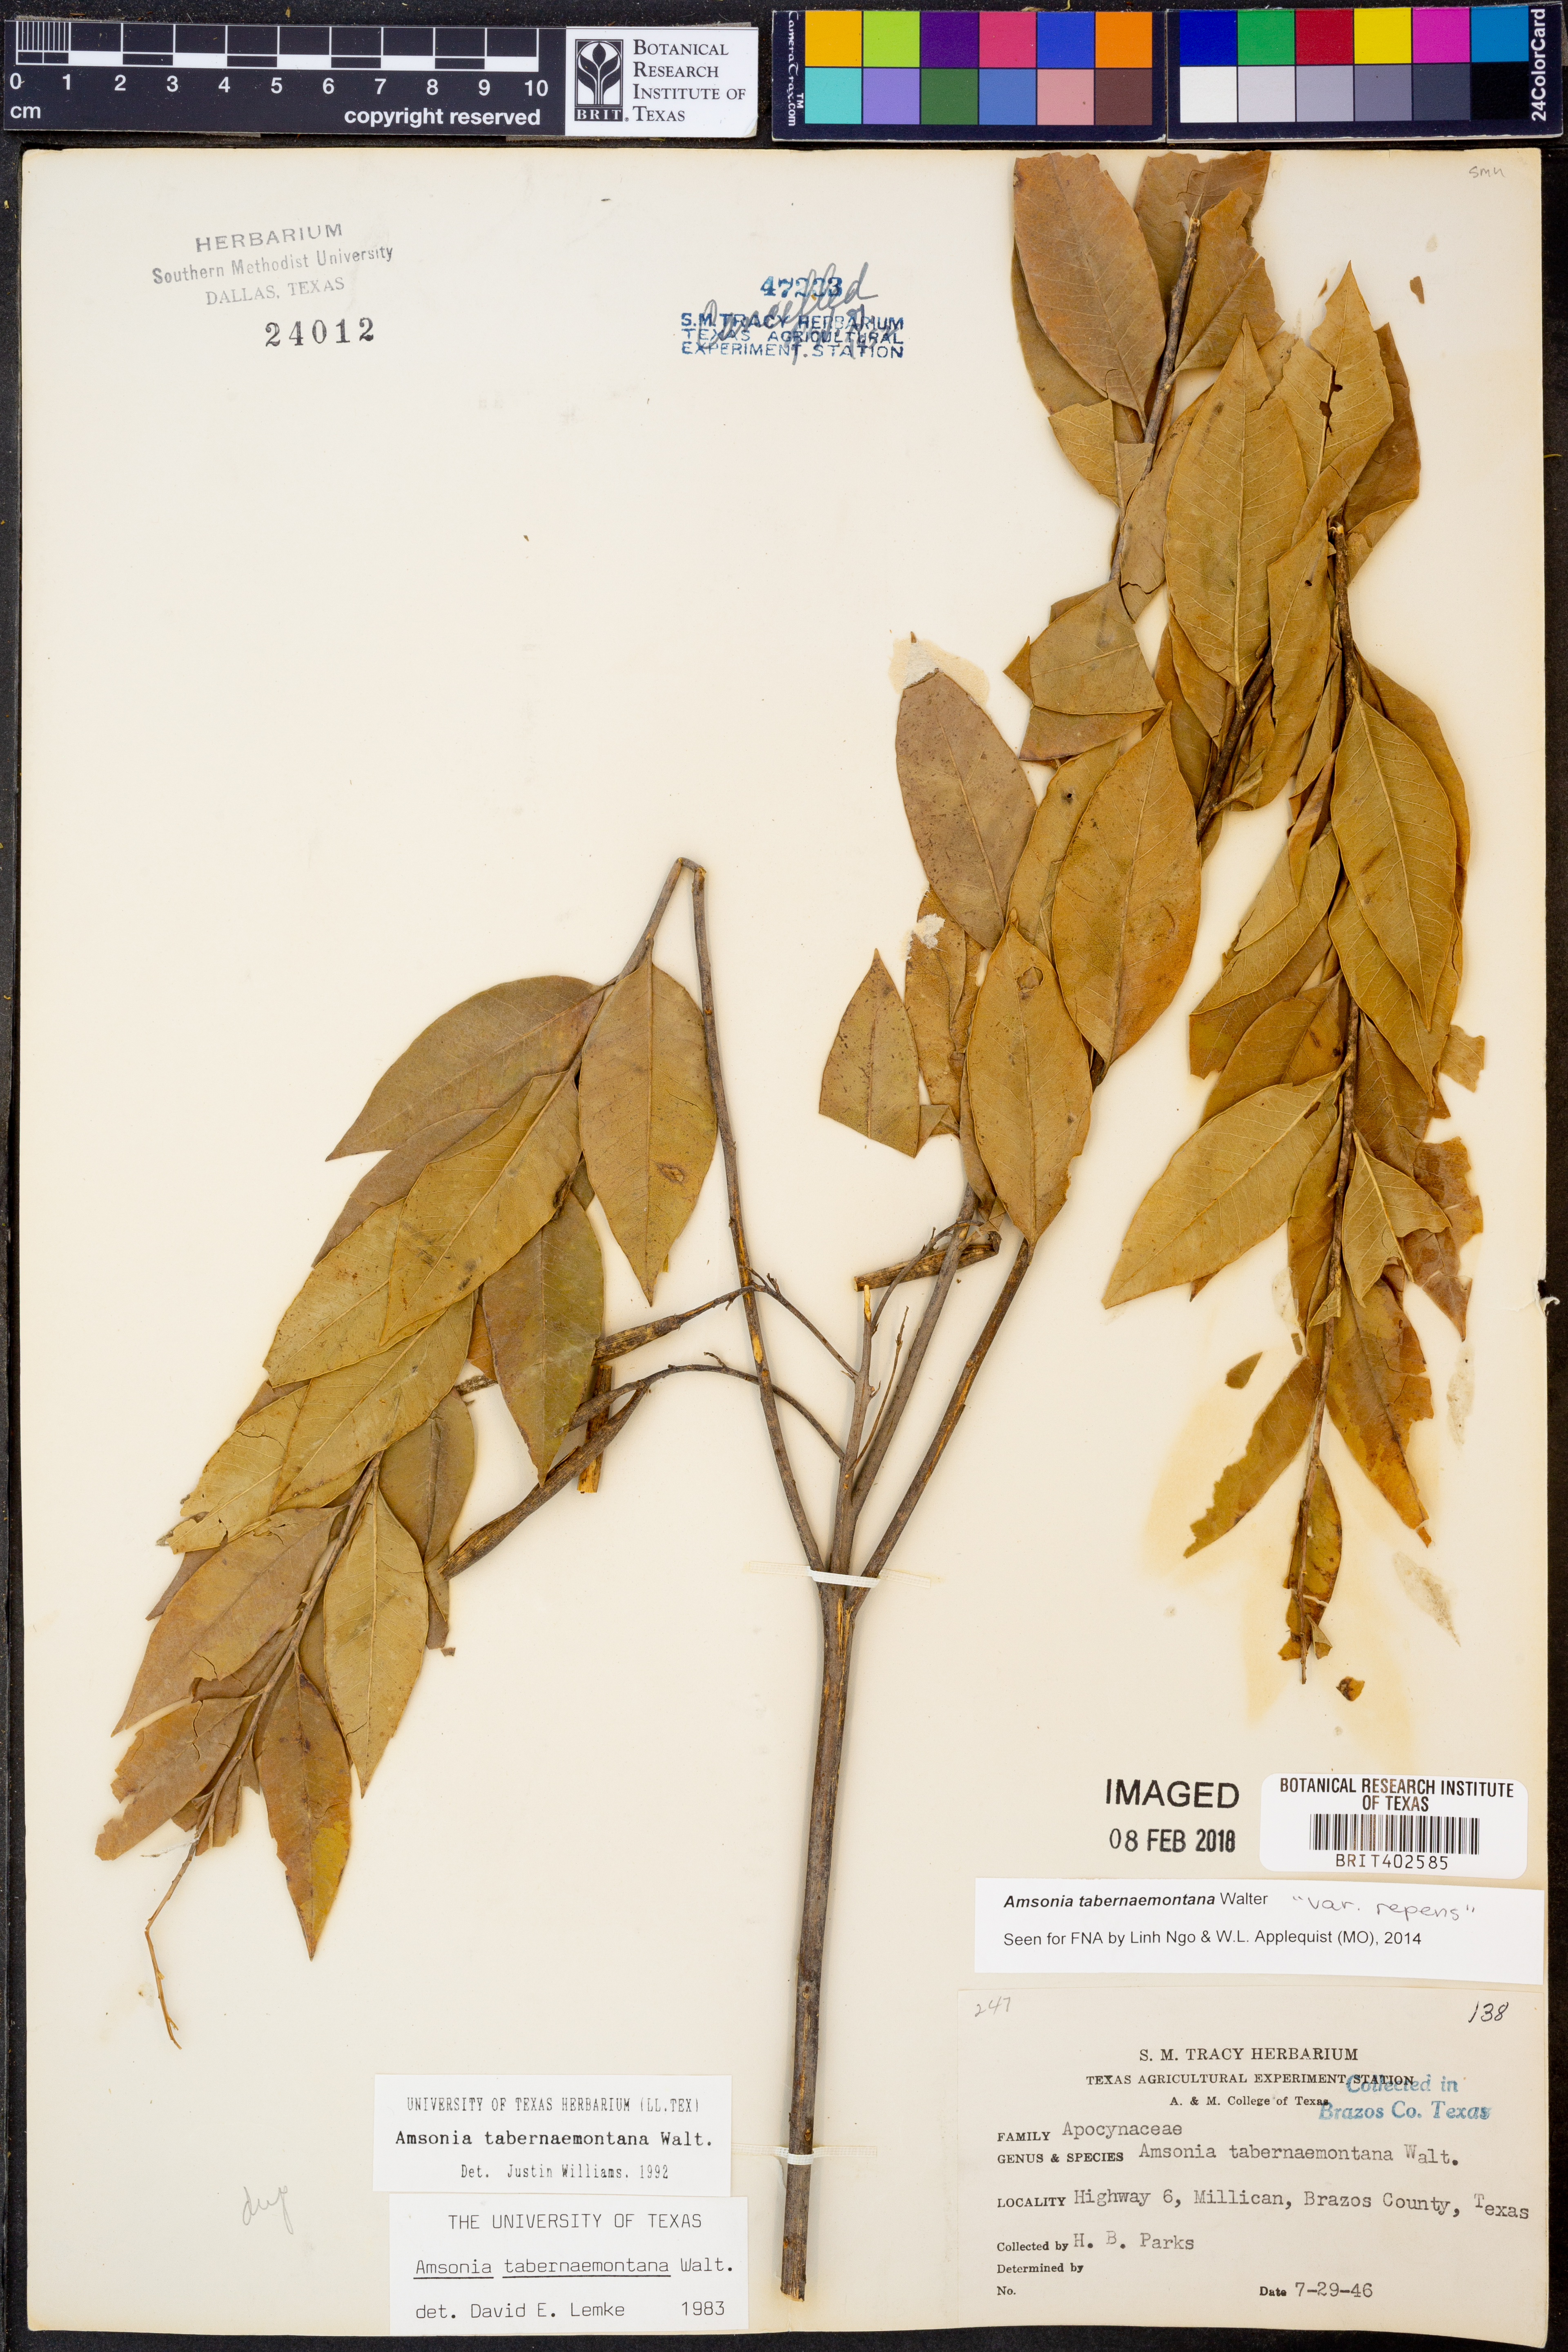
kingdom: Plantae
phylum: Tracheophyta
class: Magnoliopsida
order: Gentianales
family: Apocynaceae
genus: Amsonia
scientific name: Amsonia tabernaemontana
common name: Texas-star
